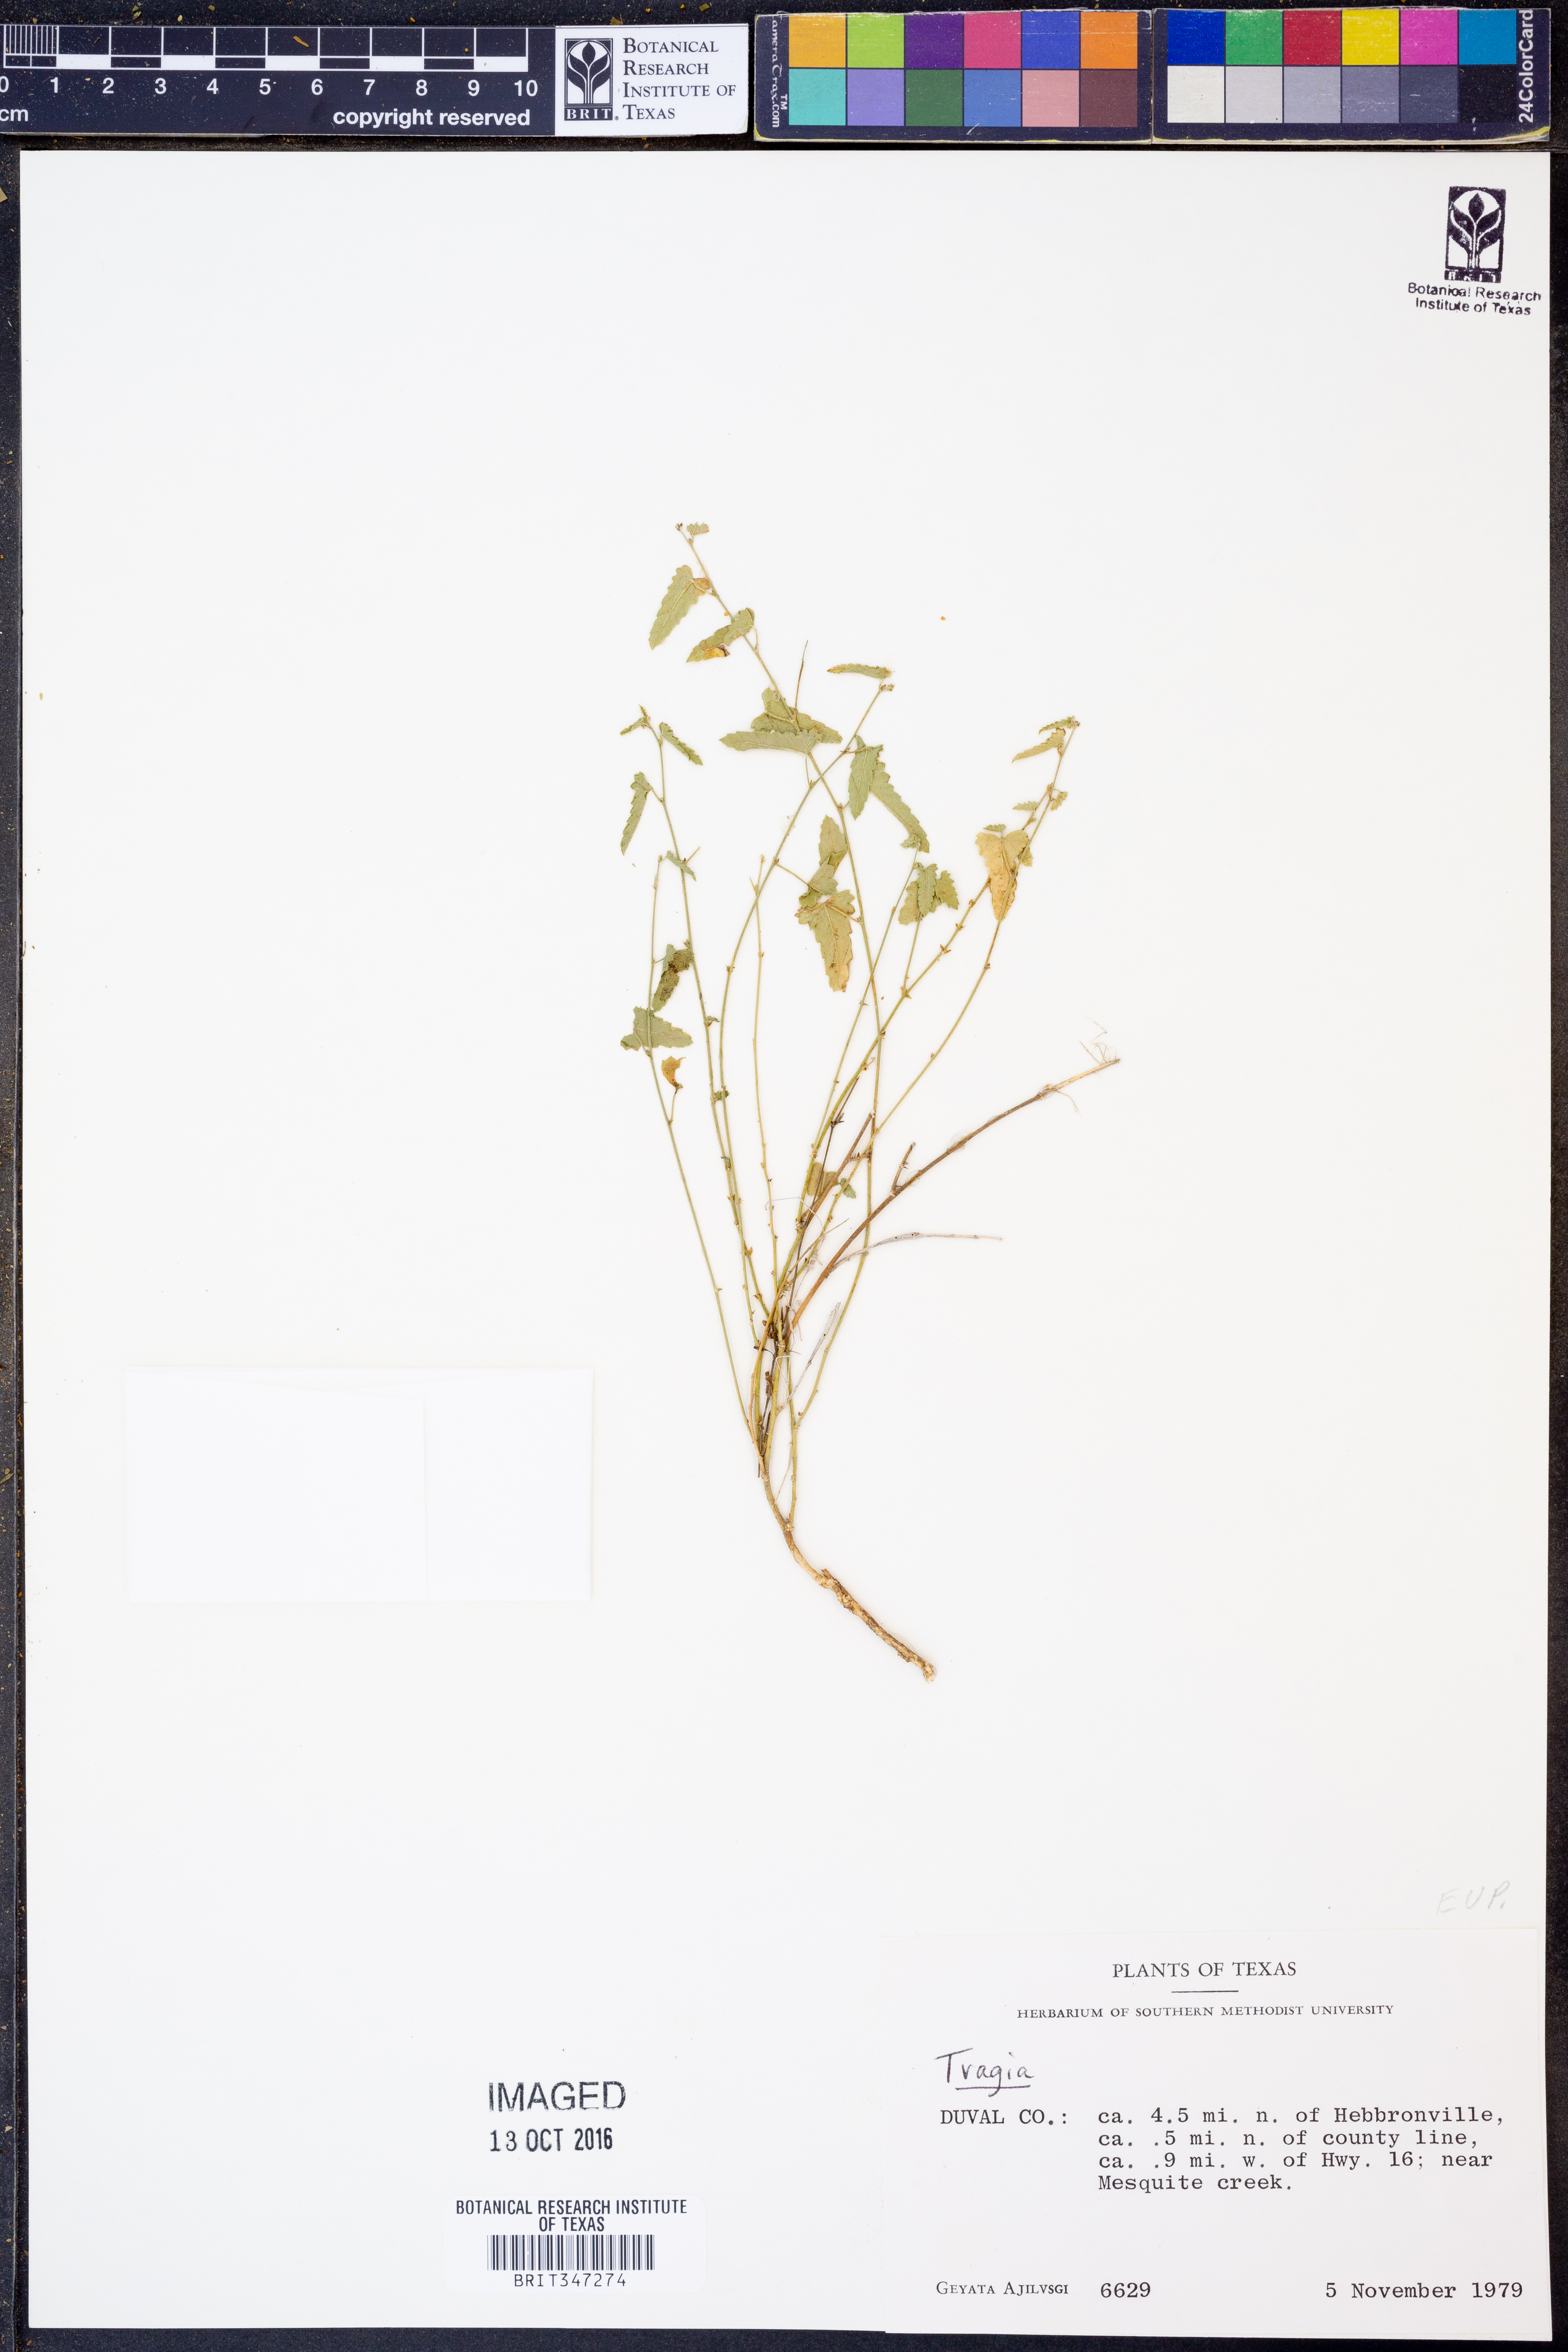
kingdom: Plantae
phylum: Tracheophyta
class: Magnoliopsida
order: Malpighiales
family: Euphorbiaceae
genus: Tragia
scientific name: Tragia
